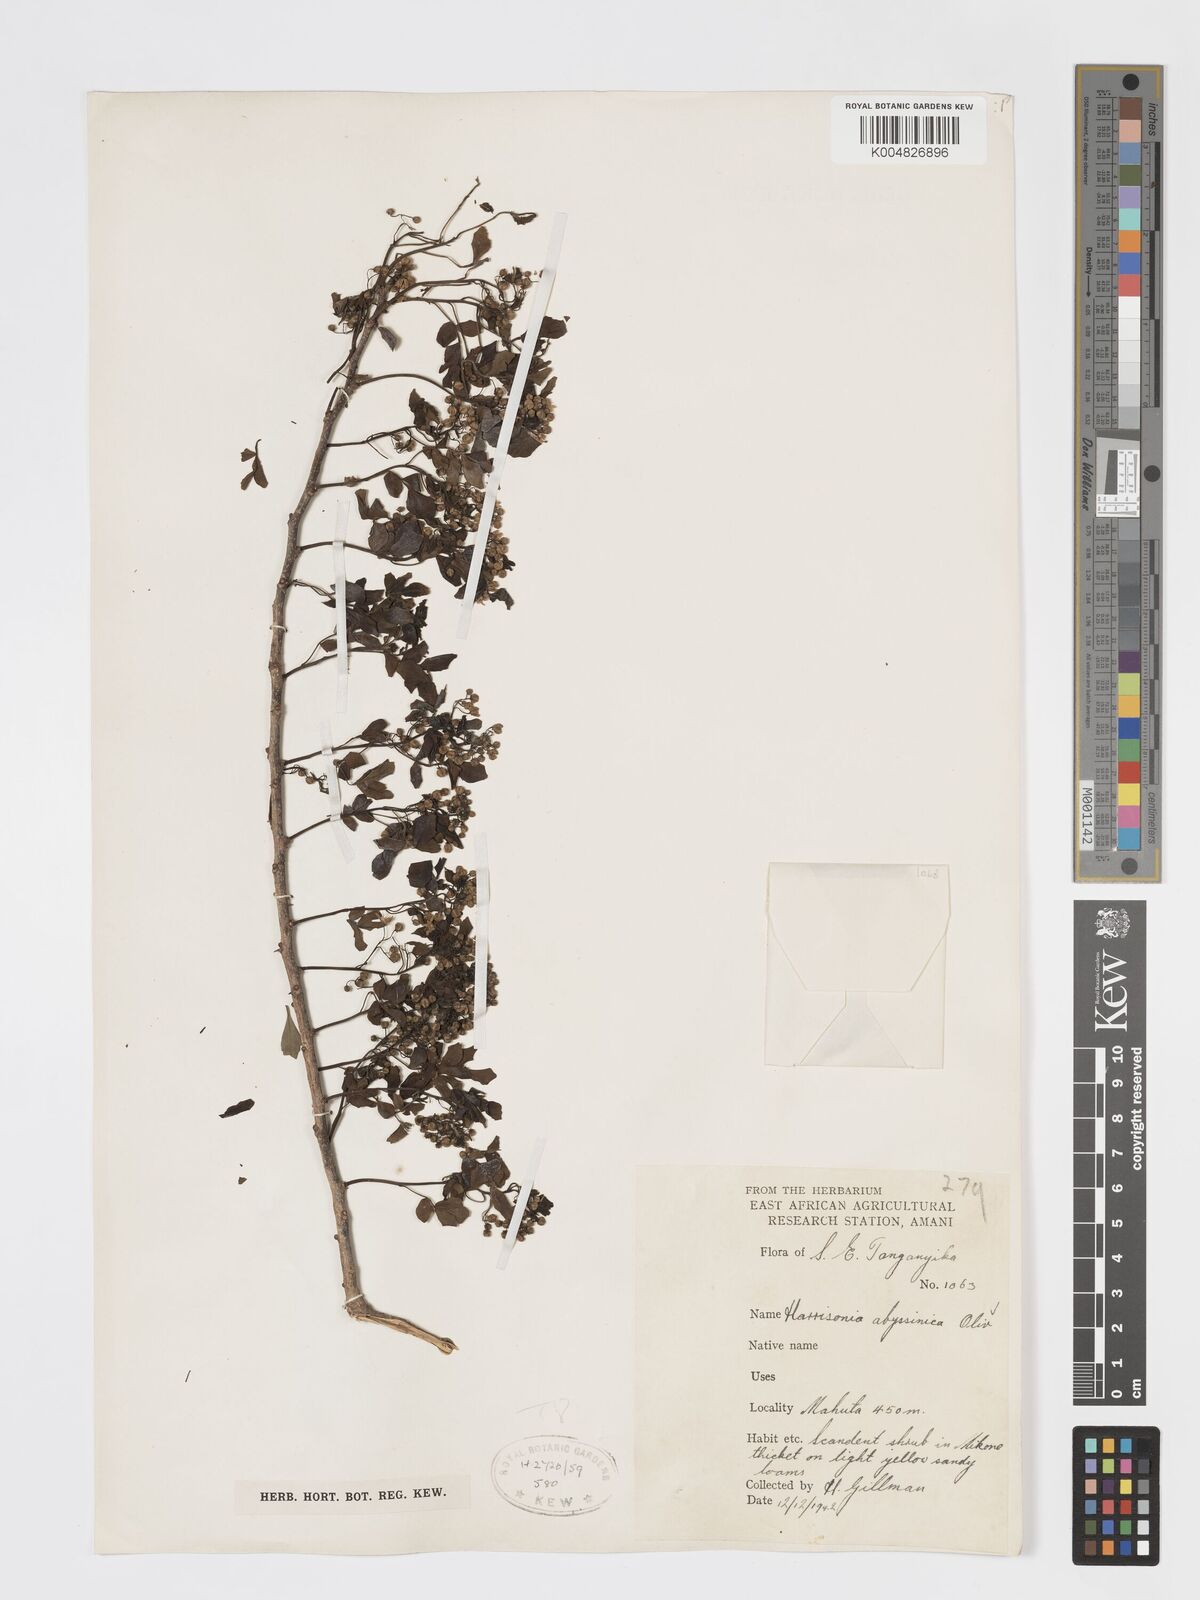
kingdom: Plantae
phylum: Tracheophyta
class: Magnoliopsida
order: Sapindales
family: Rutaceae
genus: Harrisonia
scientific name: Harrisonia abyssinica
